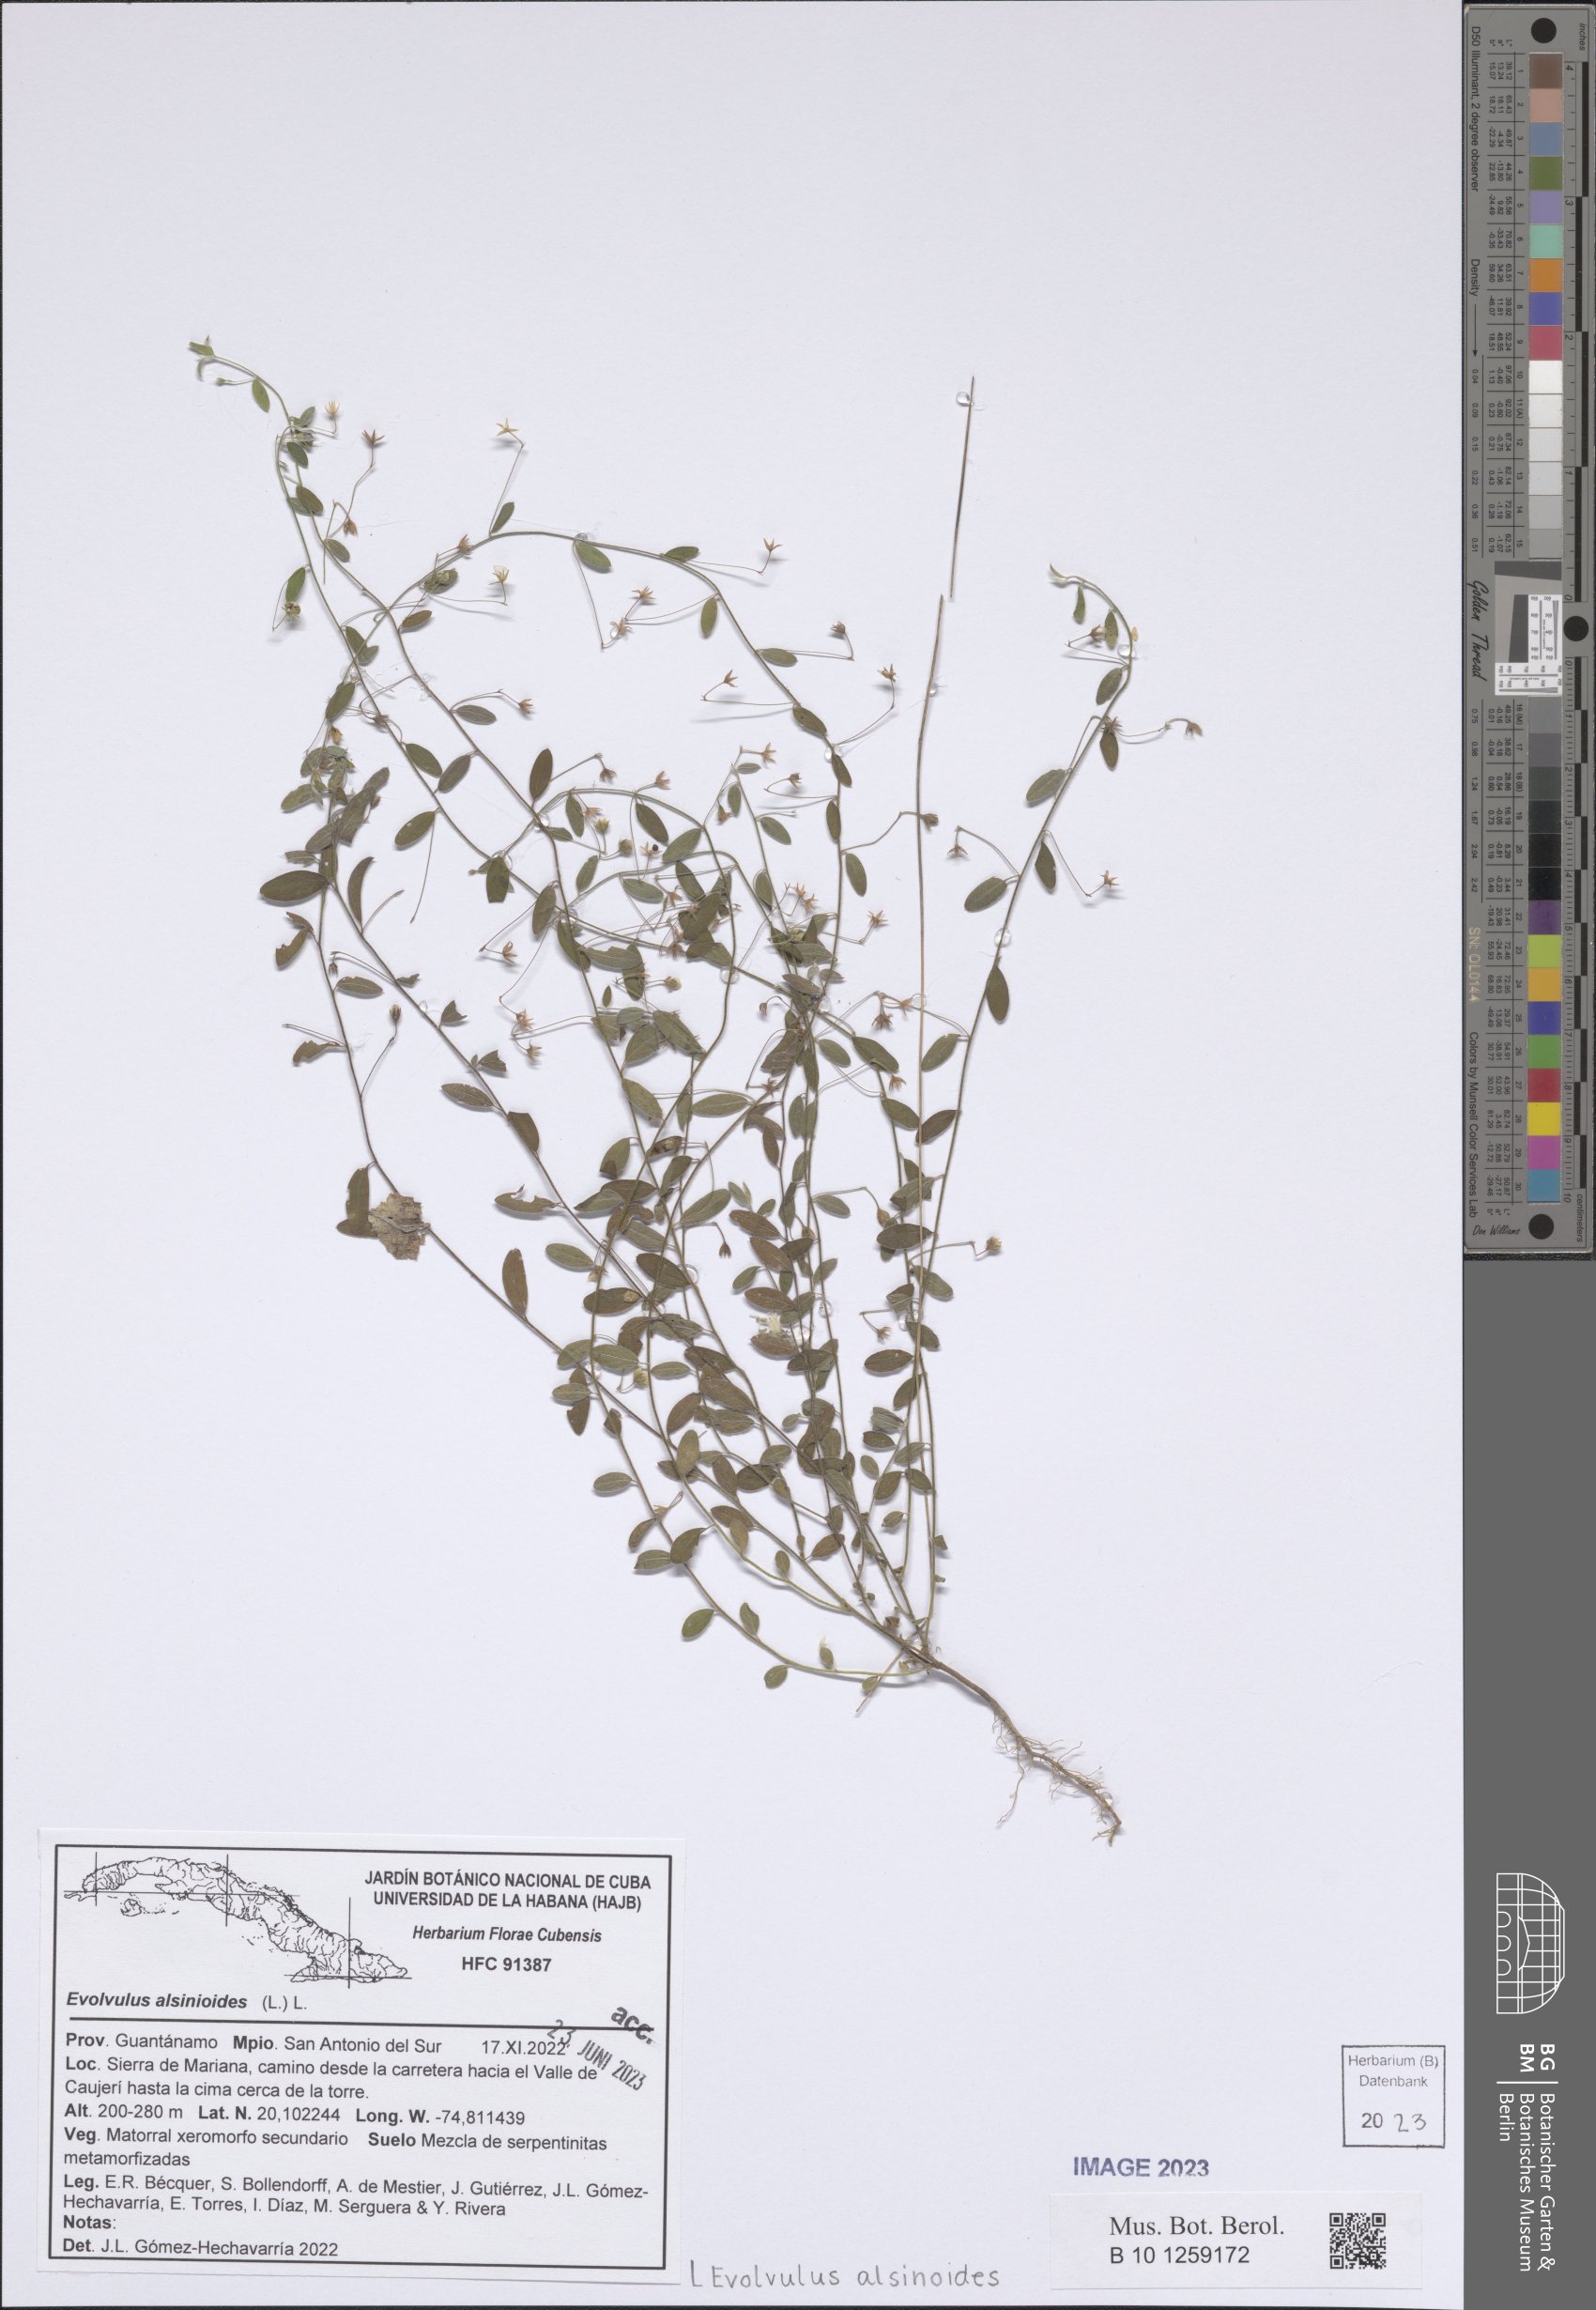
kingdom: Plantae
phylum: Tracheophyta
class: Magnoliopsida
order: Solanales
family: Convolvulaceae
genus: Evolvulus
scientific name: Evolvulus alsinoides
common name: Slender dwarf morning-glory
